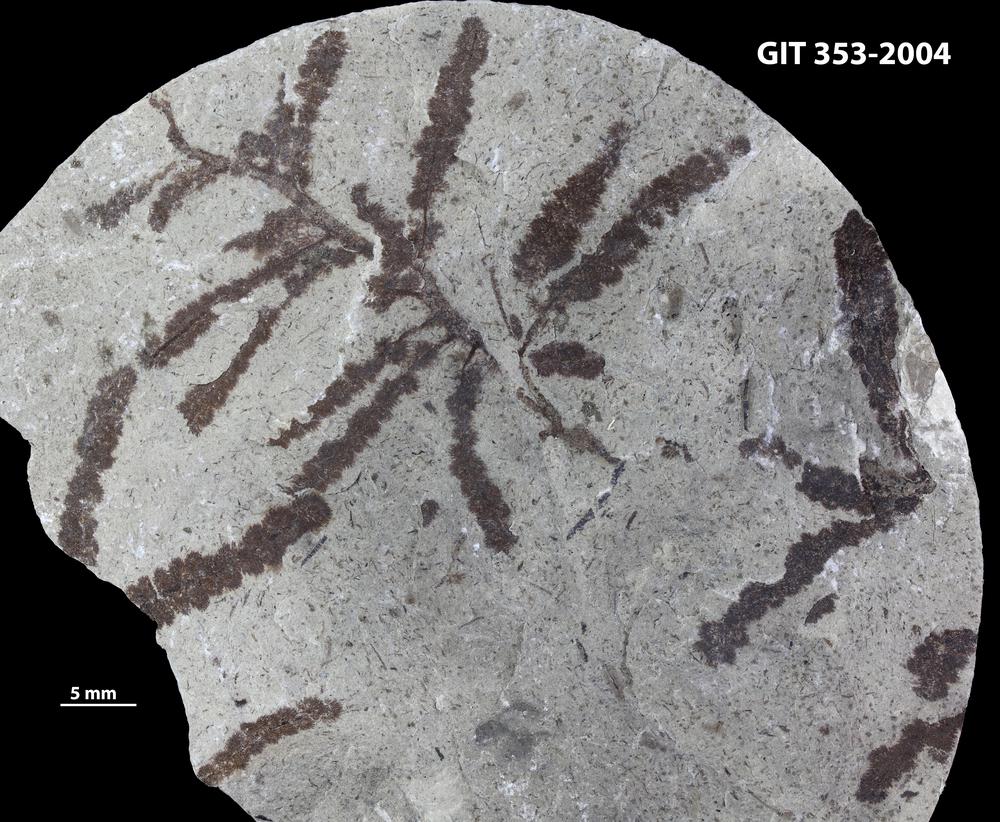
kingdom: Plantae
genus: Leveilleites
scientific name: Leveilleites hartnageli
